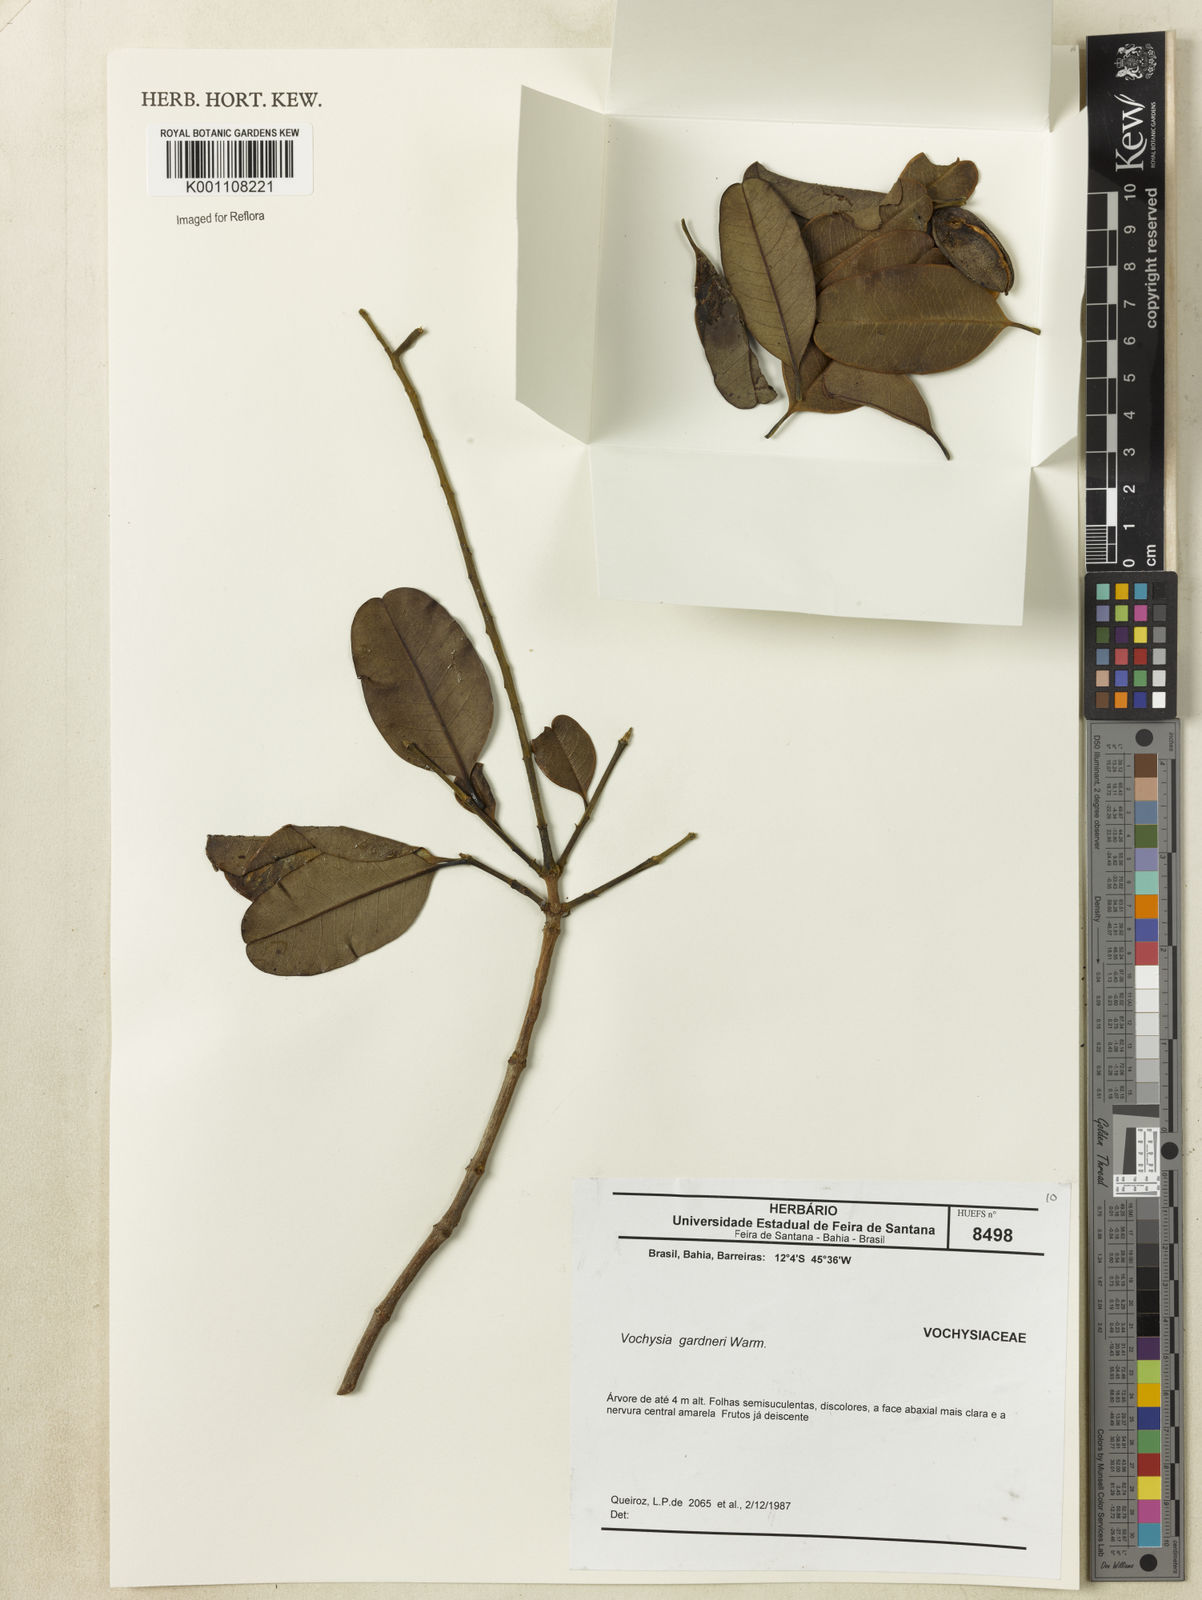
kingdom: Plantae
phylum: Tracheophyta
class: Magnoliopsida
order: Myrtales
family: Vochysiaceae
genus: Vochysia
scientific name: Vochysia gardneri
